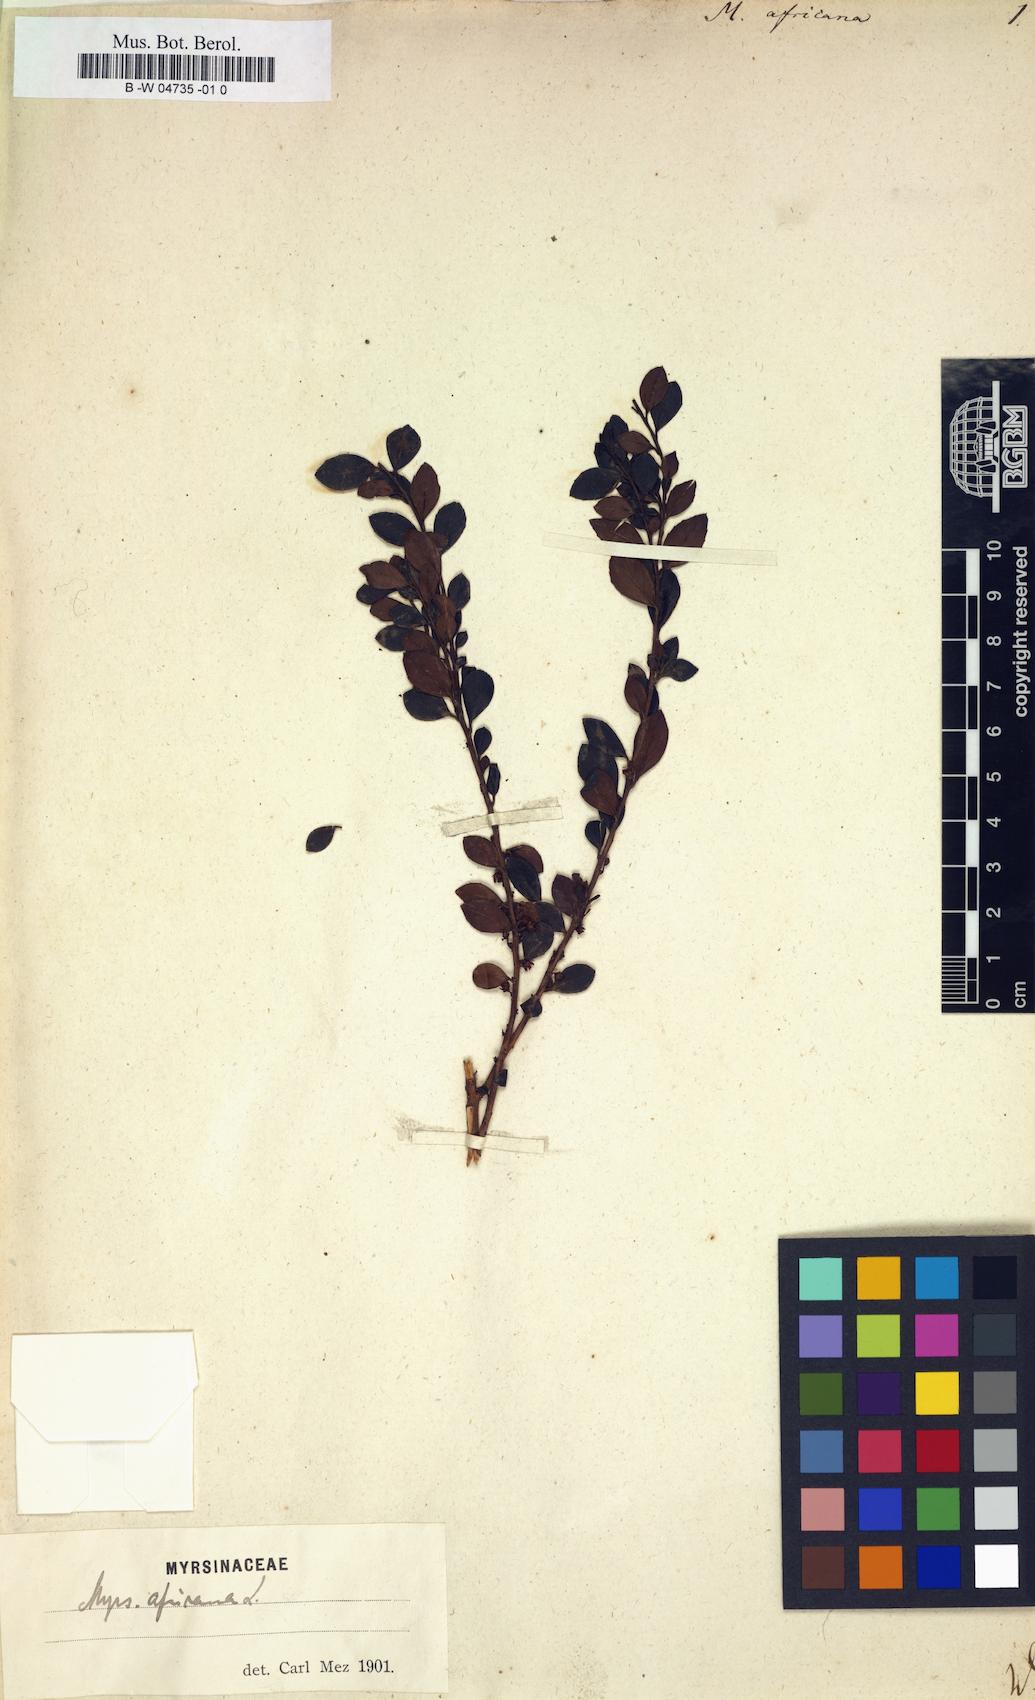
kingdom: Plantae
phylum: Tracheophyta
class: Magnoliopsida
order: Ericales
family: Primulaceae
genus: Myrsine
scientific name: Myrsine africana
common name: African-boxwood
